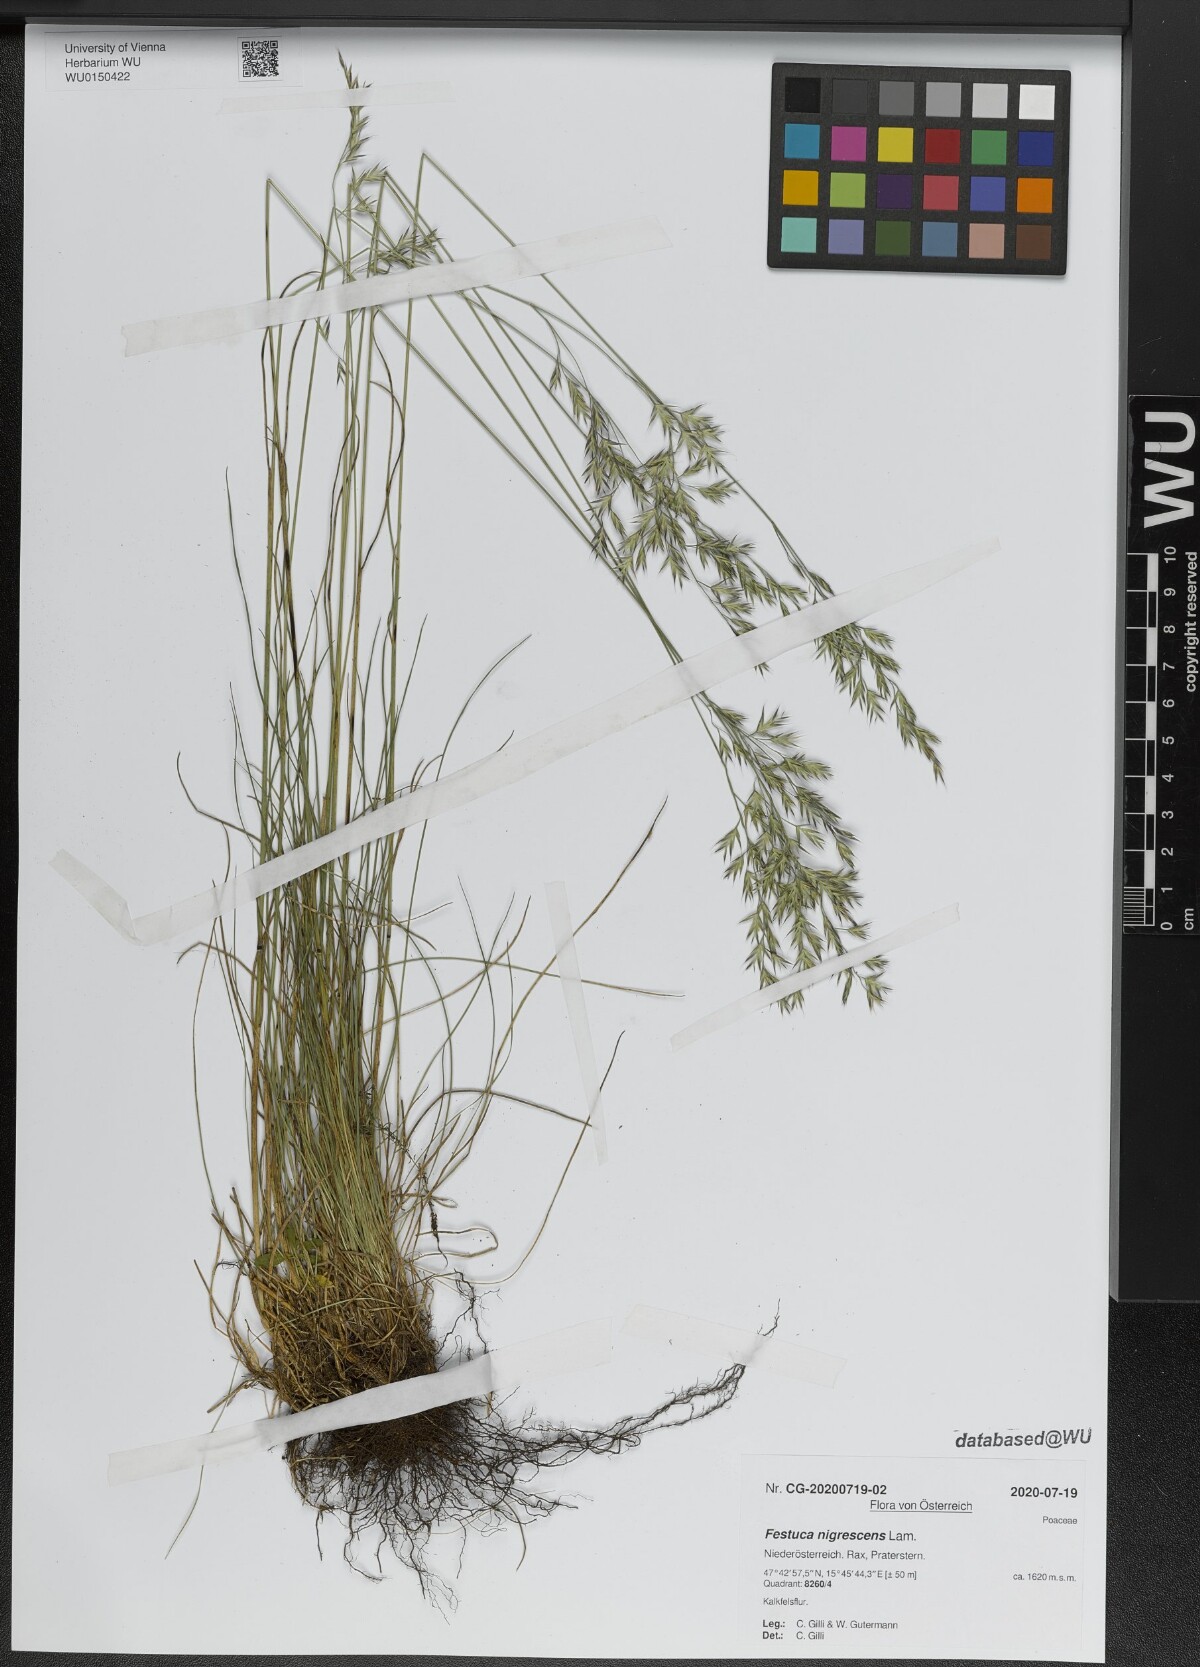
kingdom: Plantae
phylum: Tracheophyta
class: Liliopsida
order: Poales
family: Poaceae
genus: Festuca
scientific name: Festuca nigrescens
